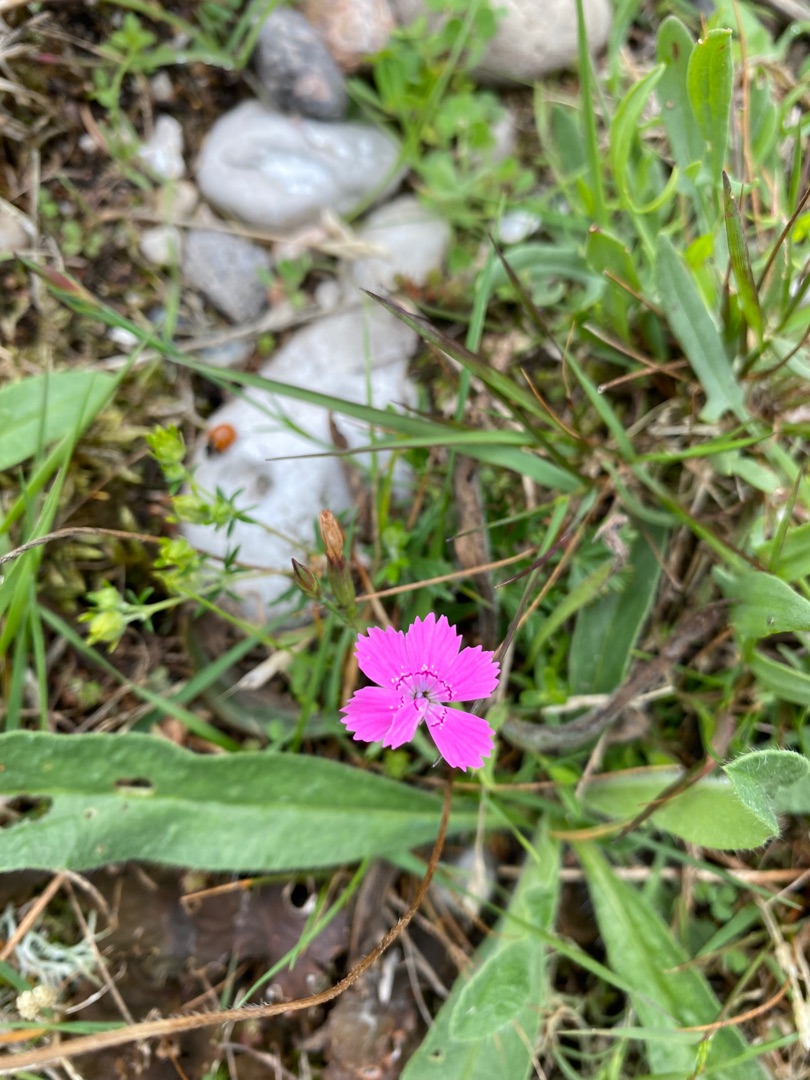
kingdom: Plantae
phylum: Tracheophyta
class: Magnoliopsida
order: Caryophyllales
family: Caryophyllaceae
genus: Dianthus
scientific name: Dianthus deltoides
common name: Bakke-nellike
